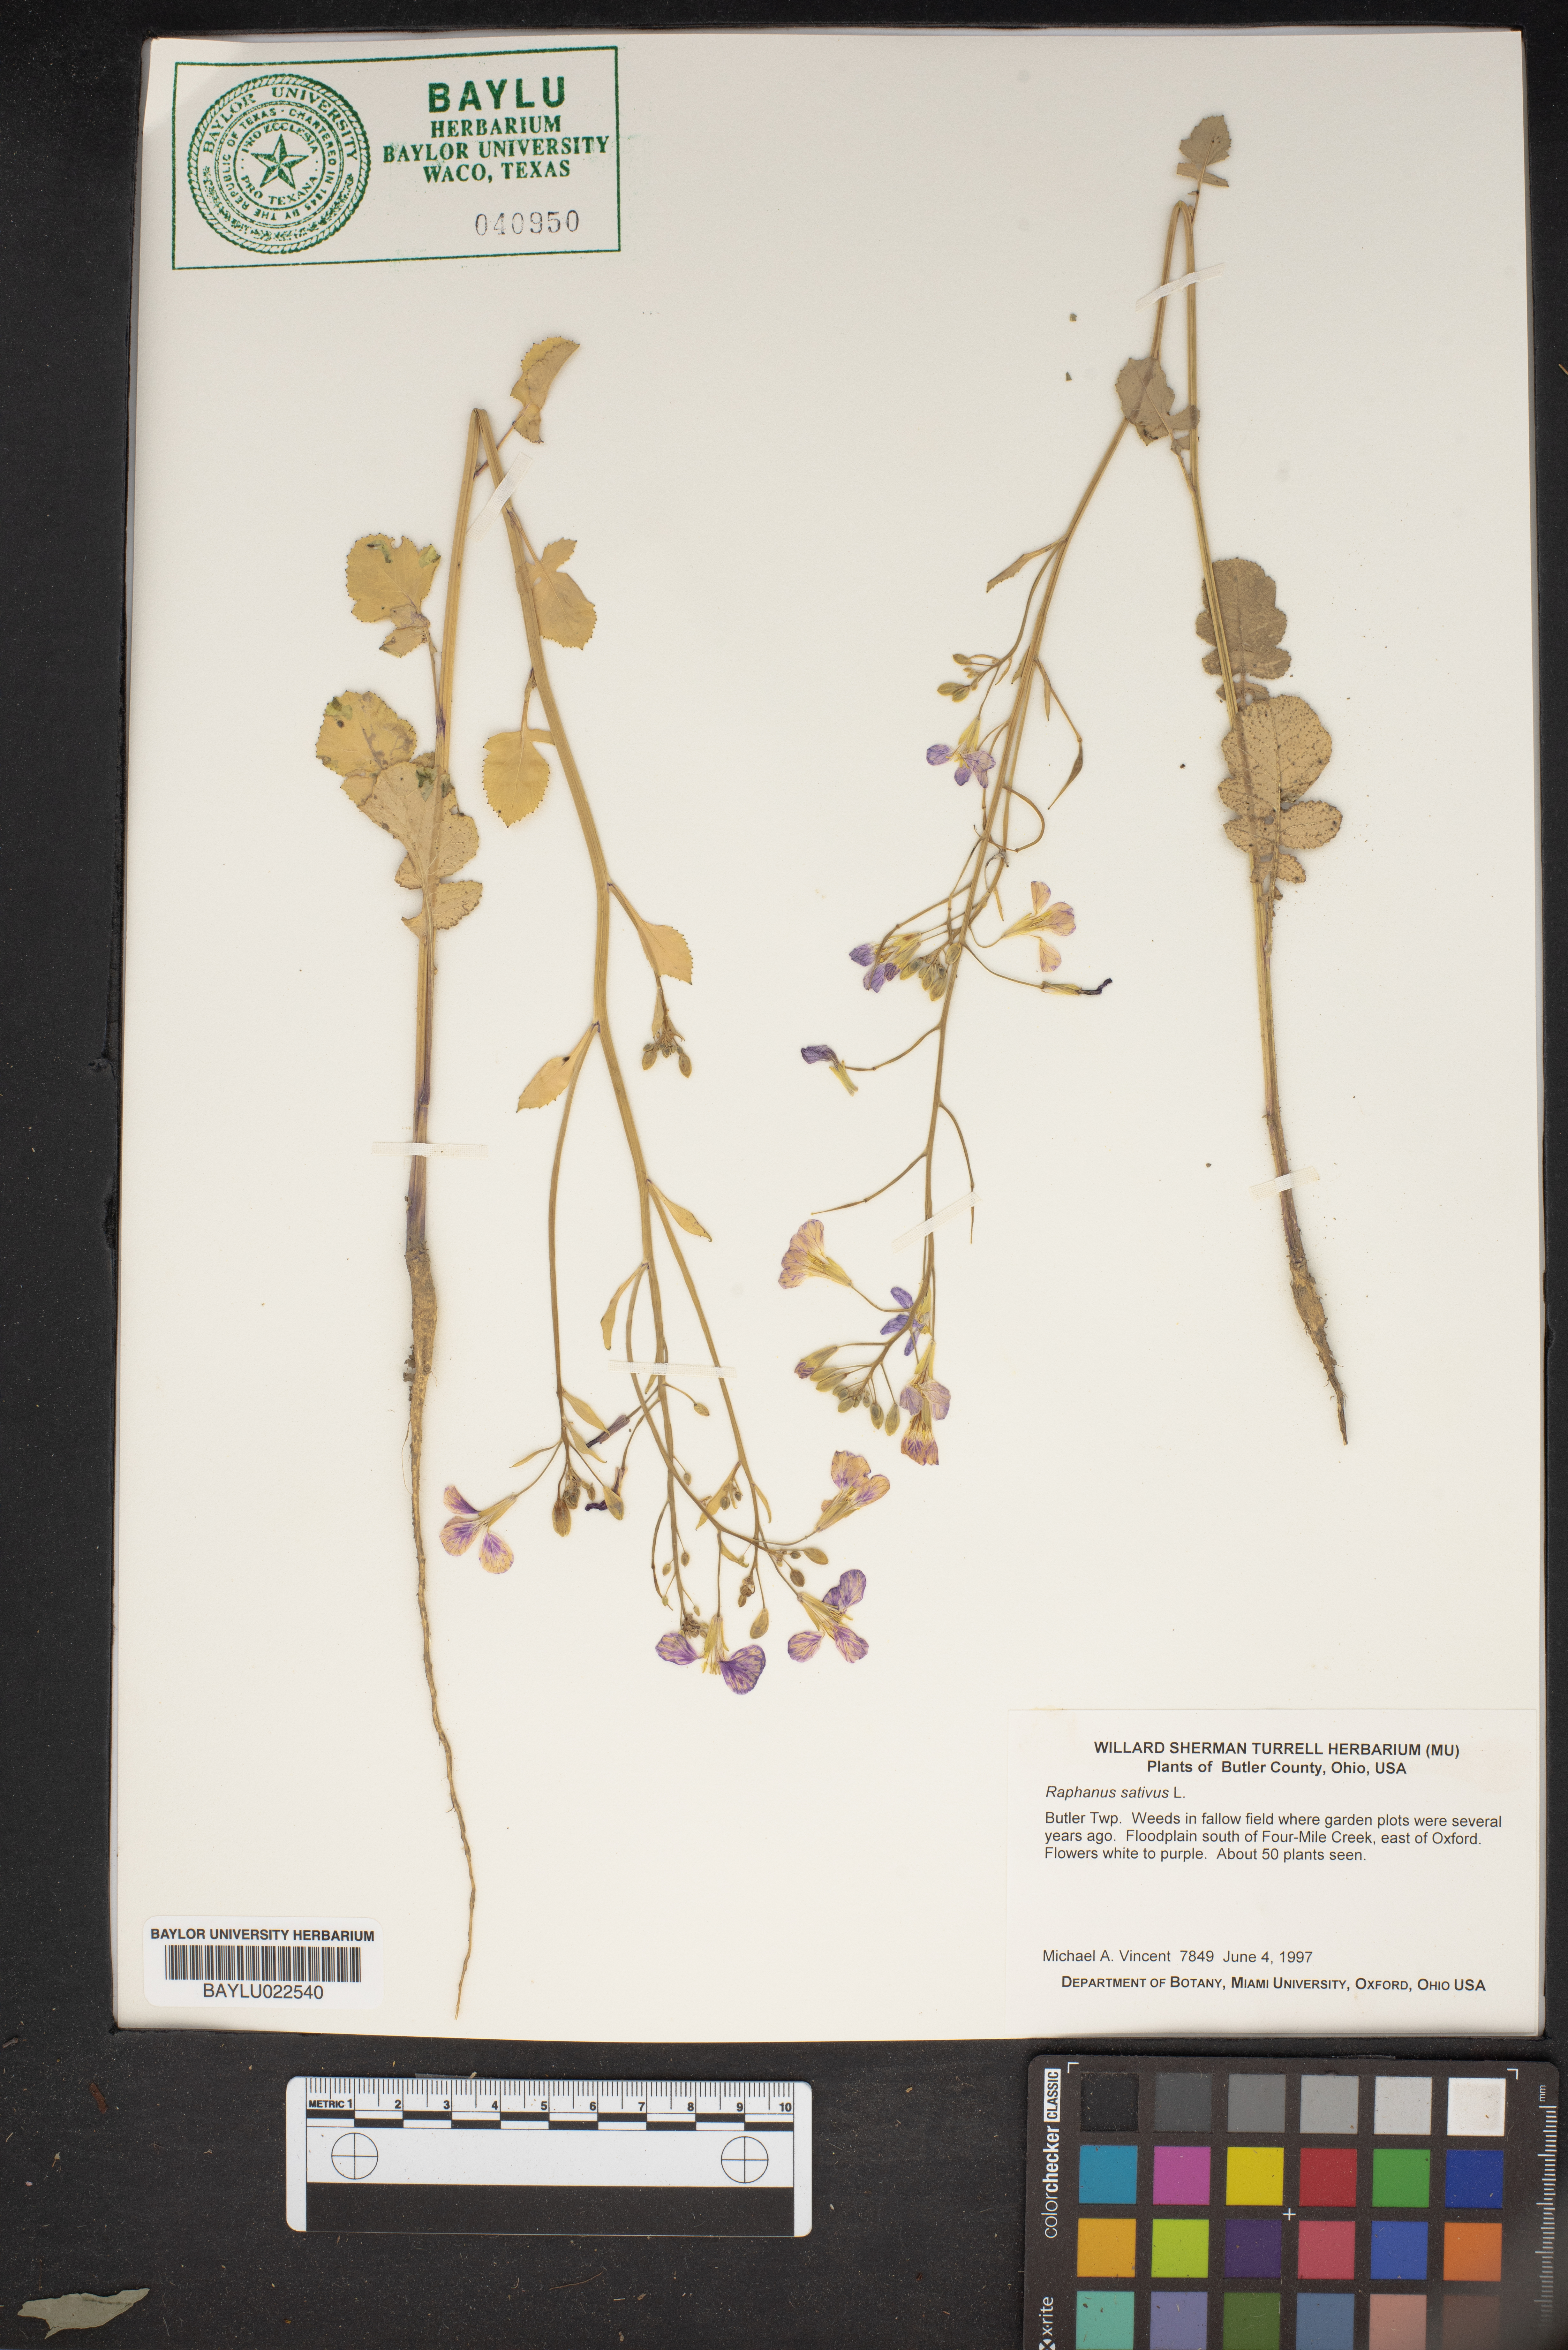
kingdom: Plantae
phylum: Tracheophyta
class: Magnoliopsida
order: Brassicales
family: Brassicaceae
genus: Raphanus
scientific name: Raphanus sativus
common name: Cultivated radish
